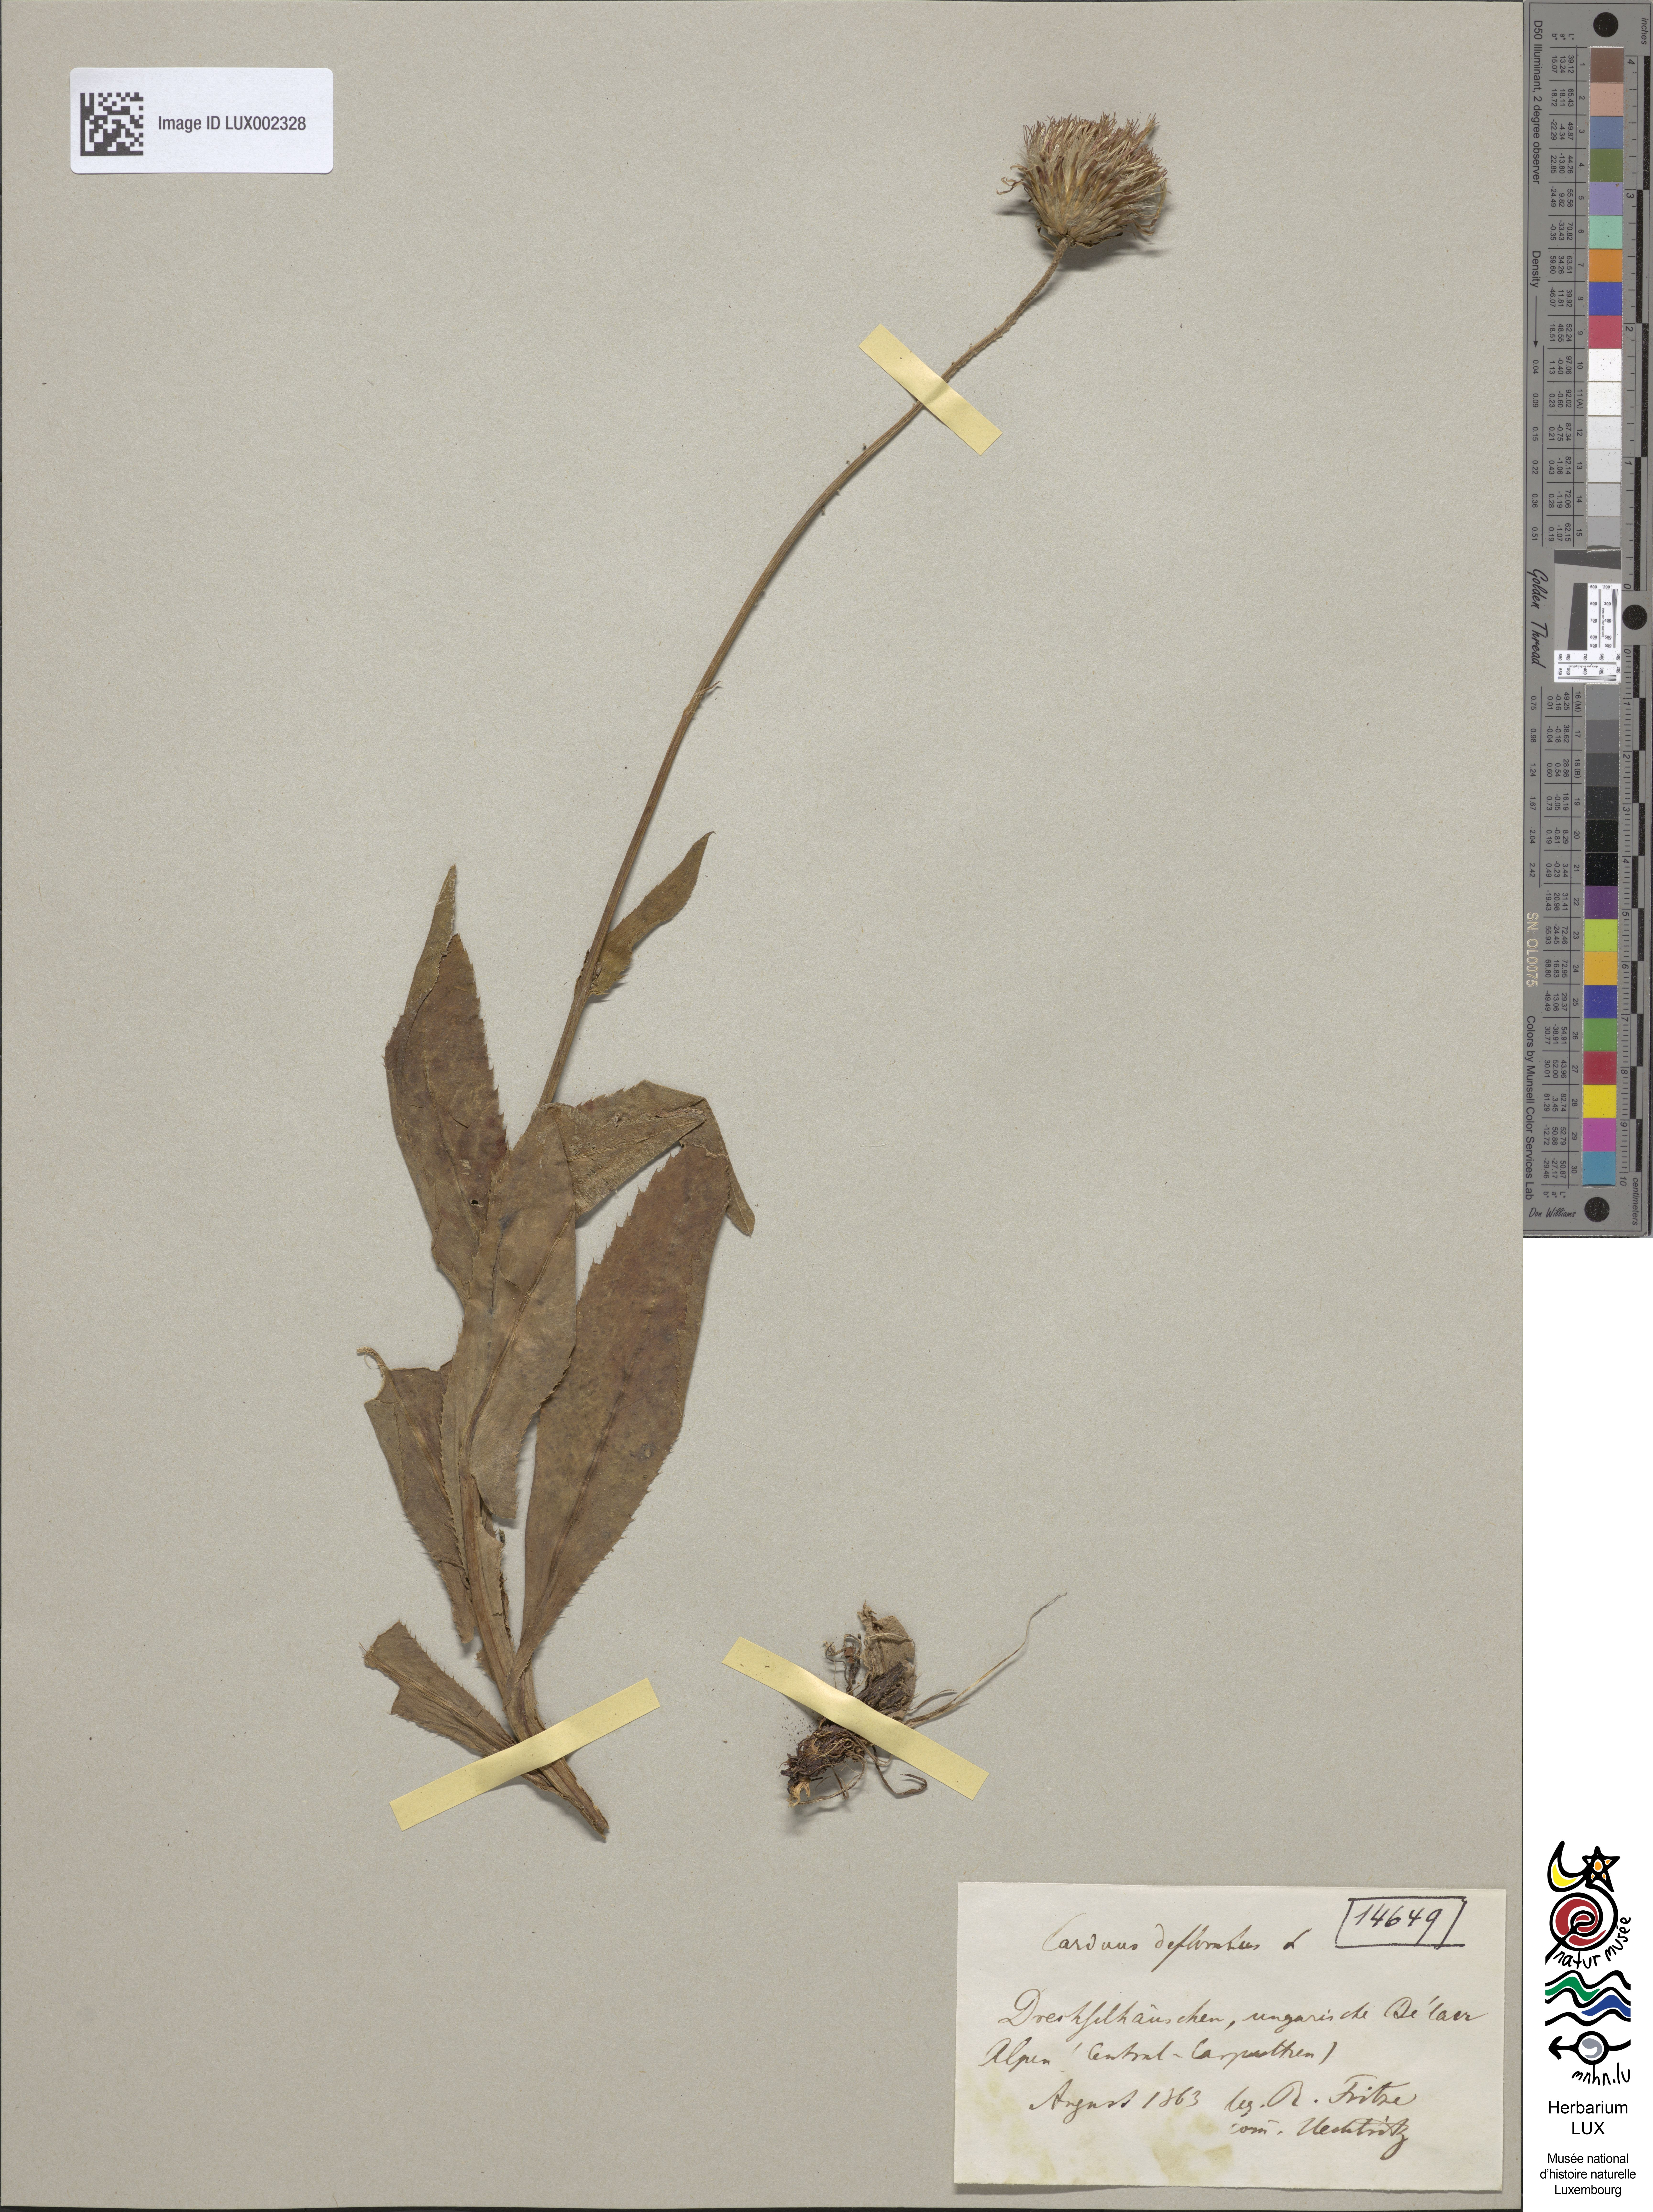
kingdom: Plantae
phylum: Tracheophyta
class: Magnoliopsida
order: Asterales
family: Asteraceae
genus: Carduus
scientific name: Carduus defloratus
